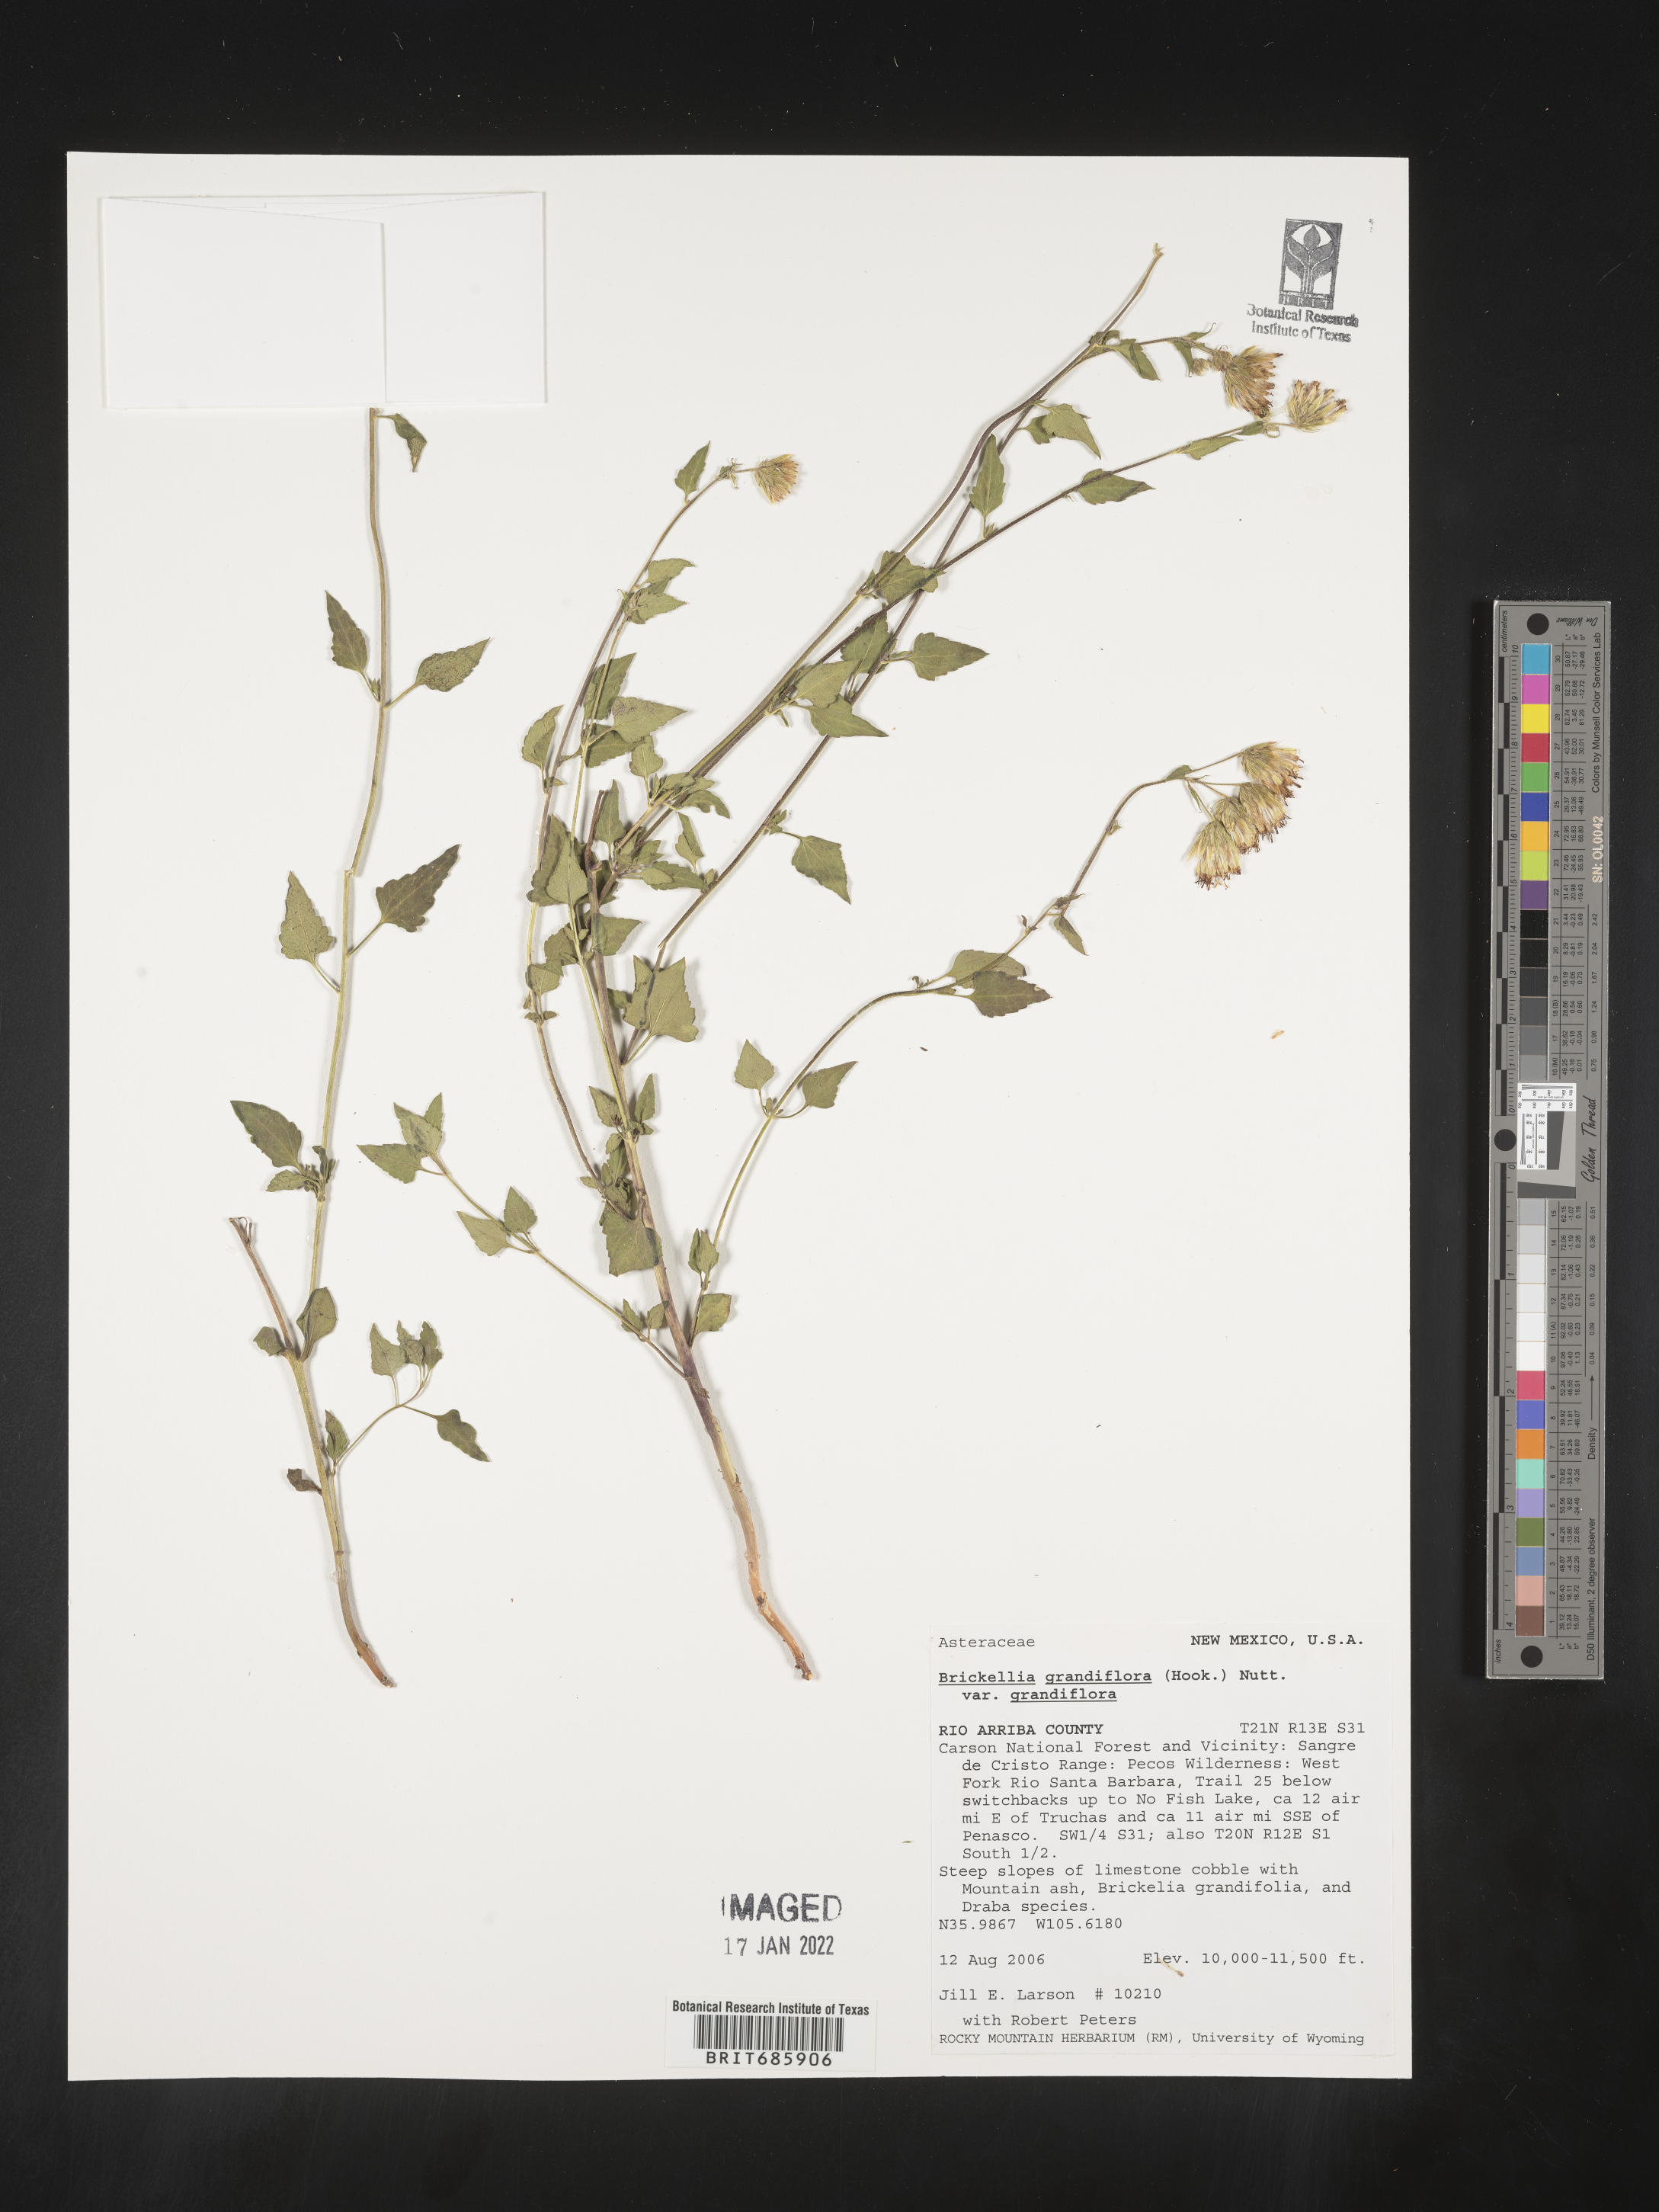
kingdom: Plantae
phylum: Tracheophyta
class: Magnoliopsida
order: Asterales
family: Asteraceae
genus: Brickellia
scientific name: Brickellia grandiflora
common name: Large-flowered brickellia
